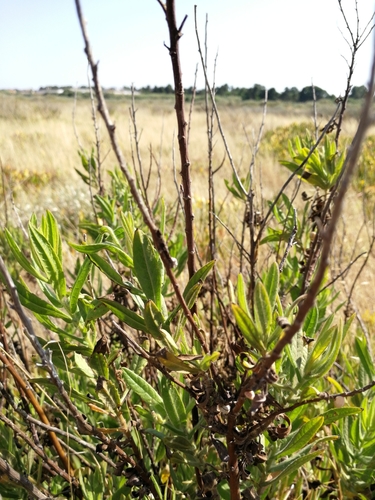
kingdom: Plantae
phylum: Tracheophyta
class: Magnoliopsida
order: Asterales
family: Asteraceae
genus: Dittrichia
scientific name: Dittrichia viscosa
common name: Woody fleabane
